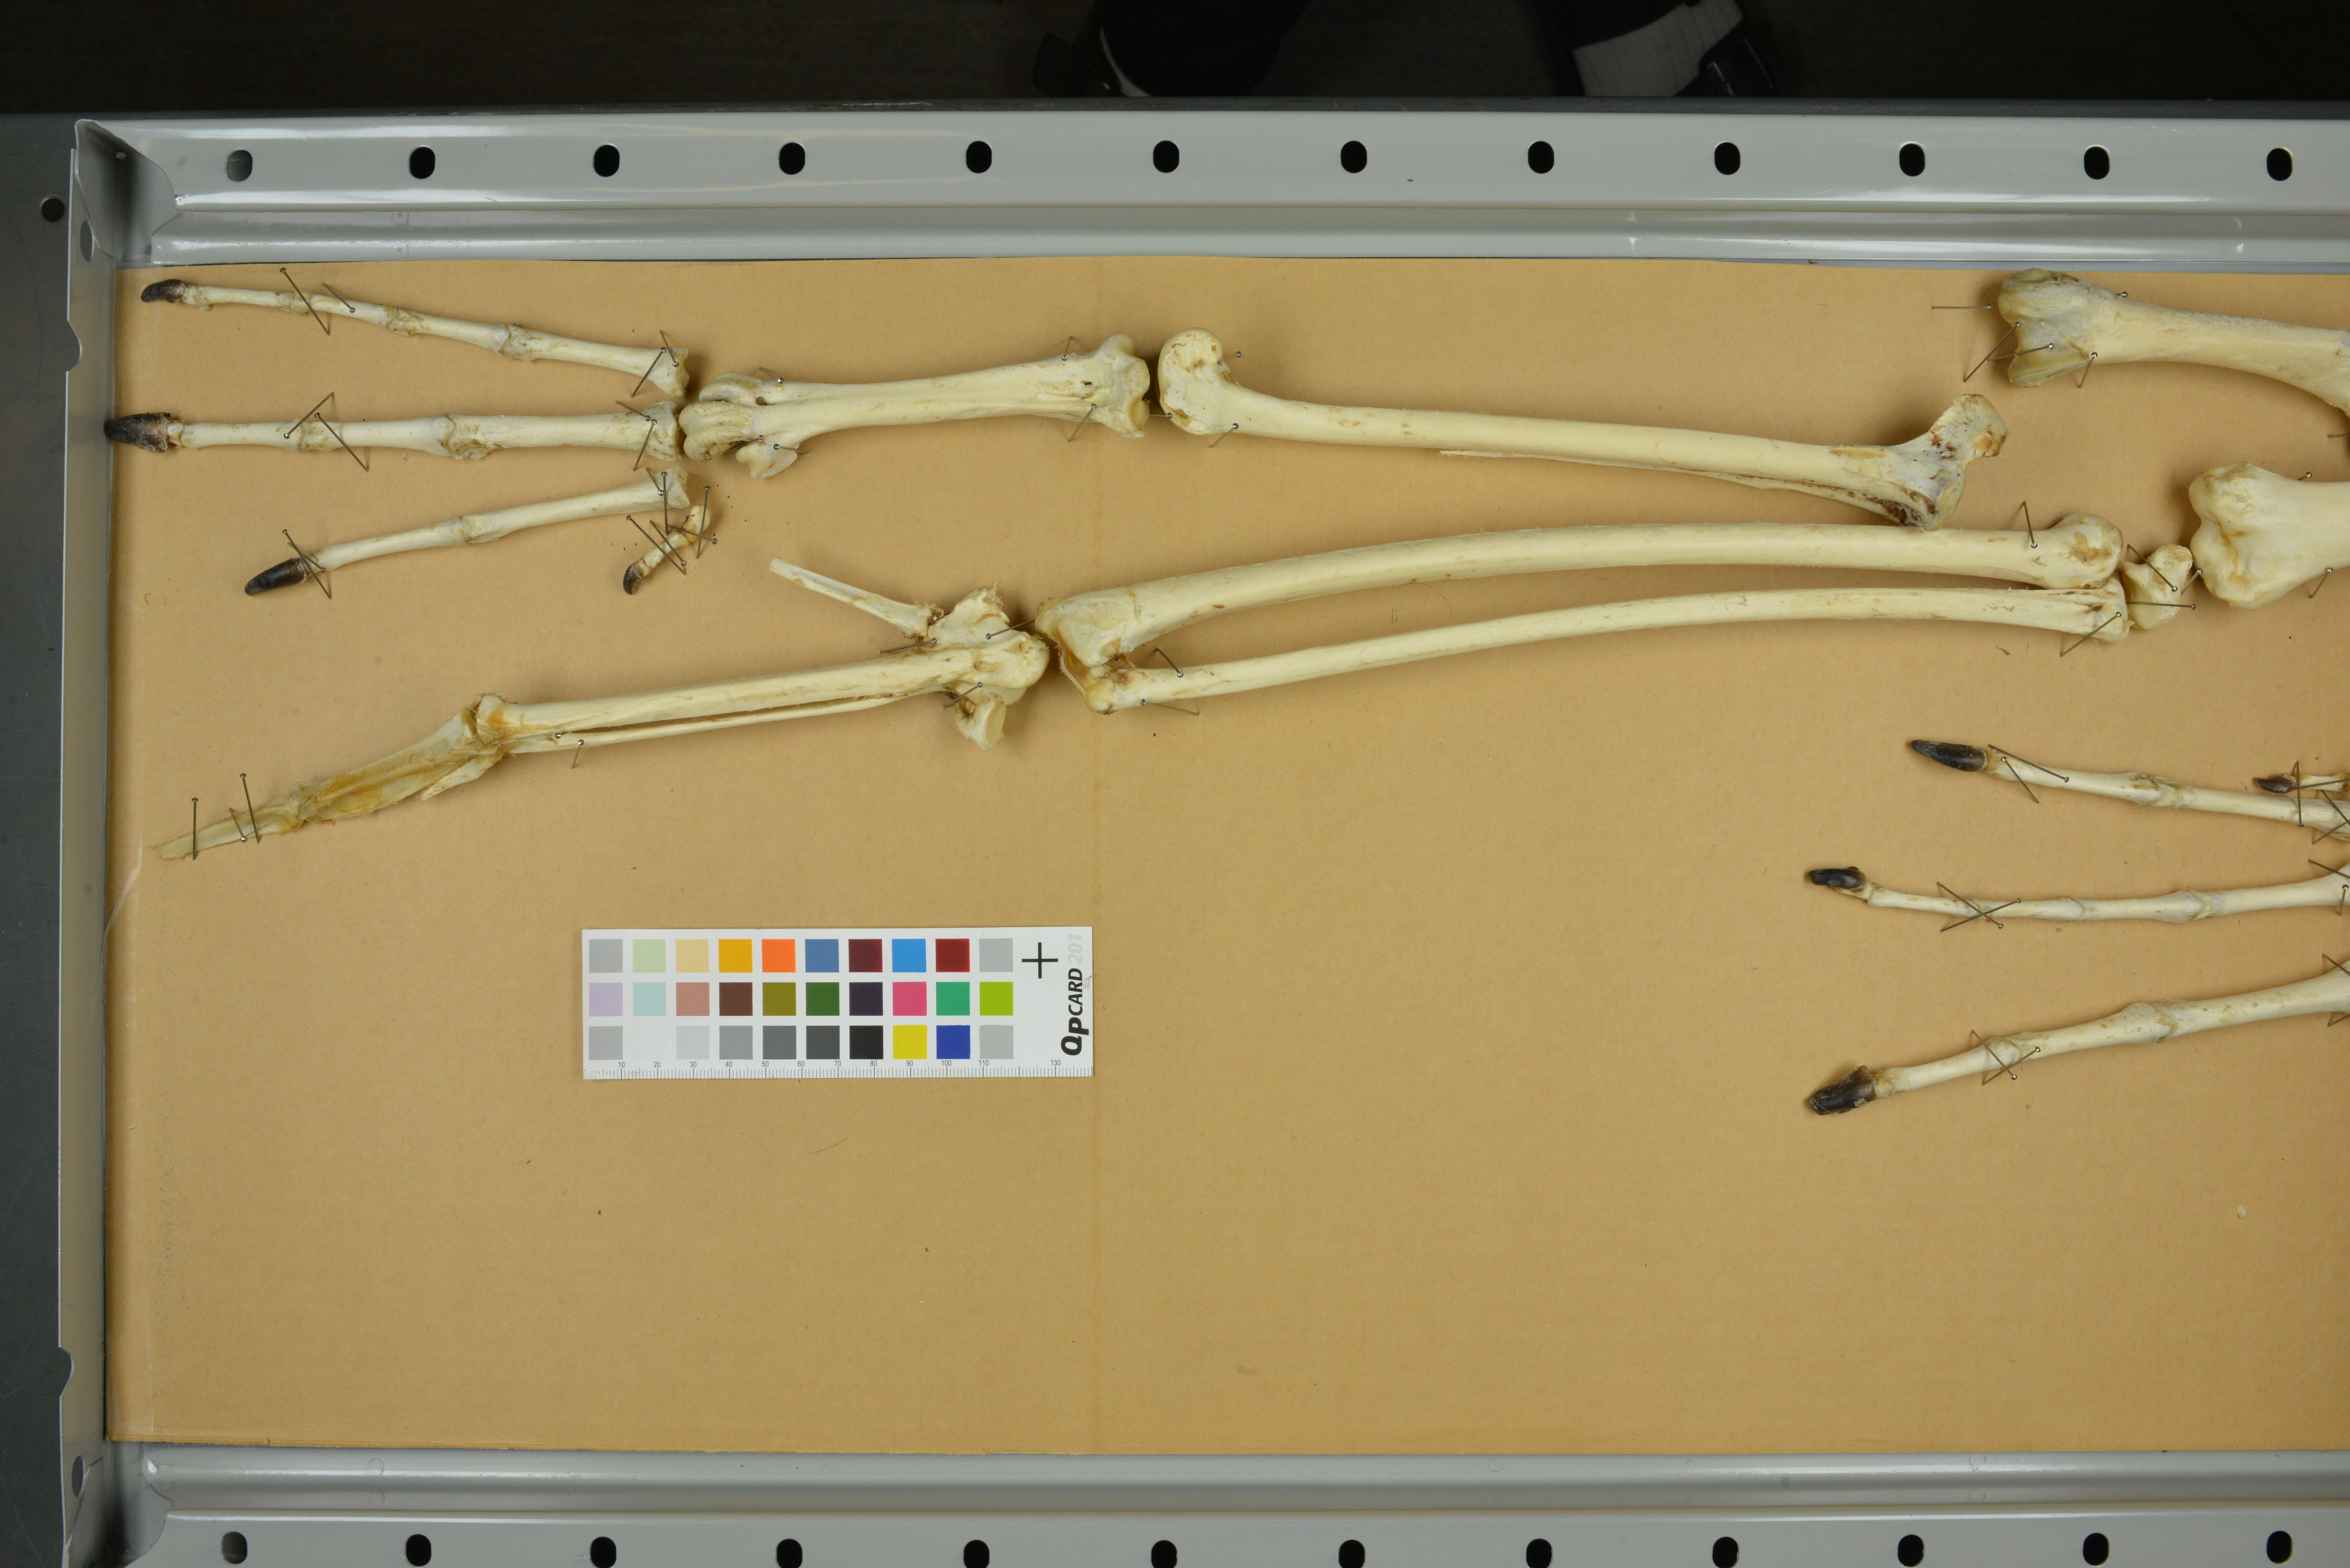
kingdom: Animalia
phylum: Chordata
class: Aves
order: Anseriformes
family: Anatidae
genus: Cygnus
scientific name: Cygnus
